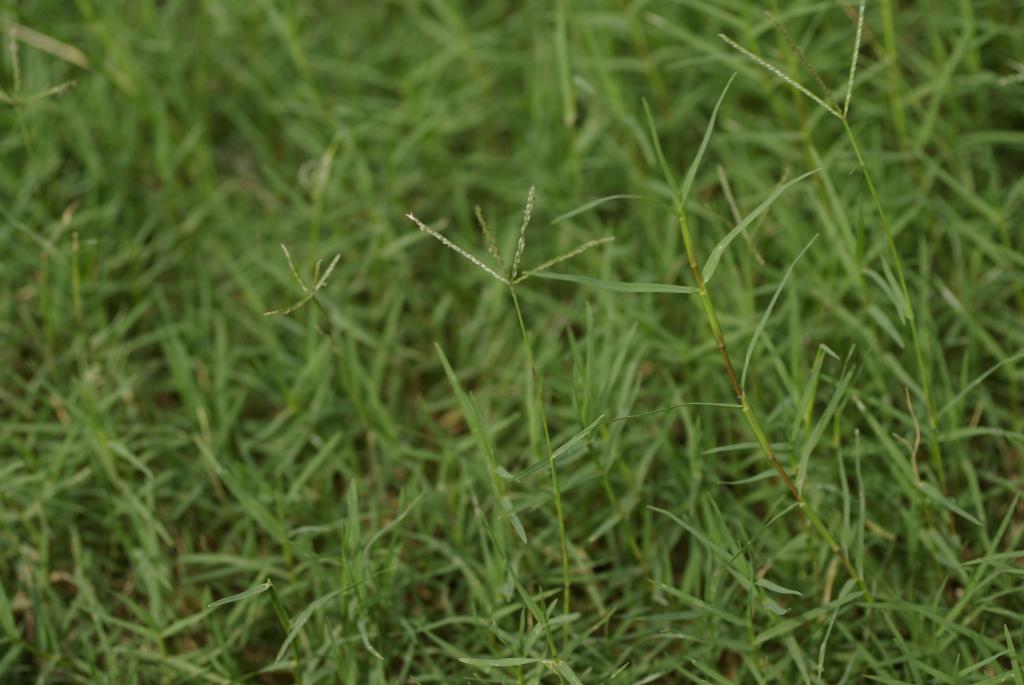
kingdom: Plantae
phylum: Tracheophyta
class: Liliopsida
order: Poales
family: Poaceae
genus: Cynodon
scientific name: Cynodon dactylon
